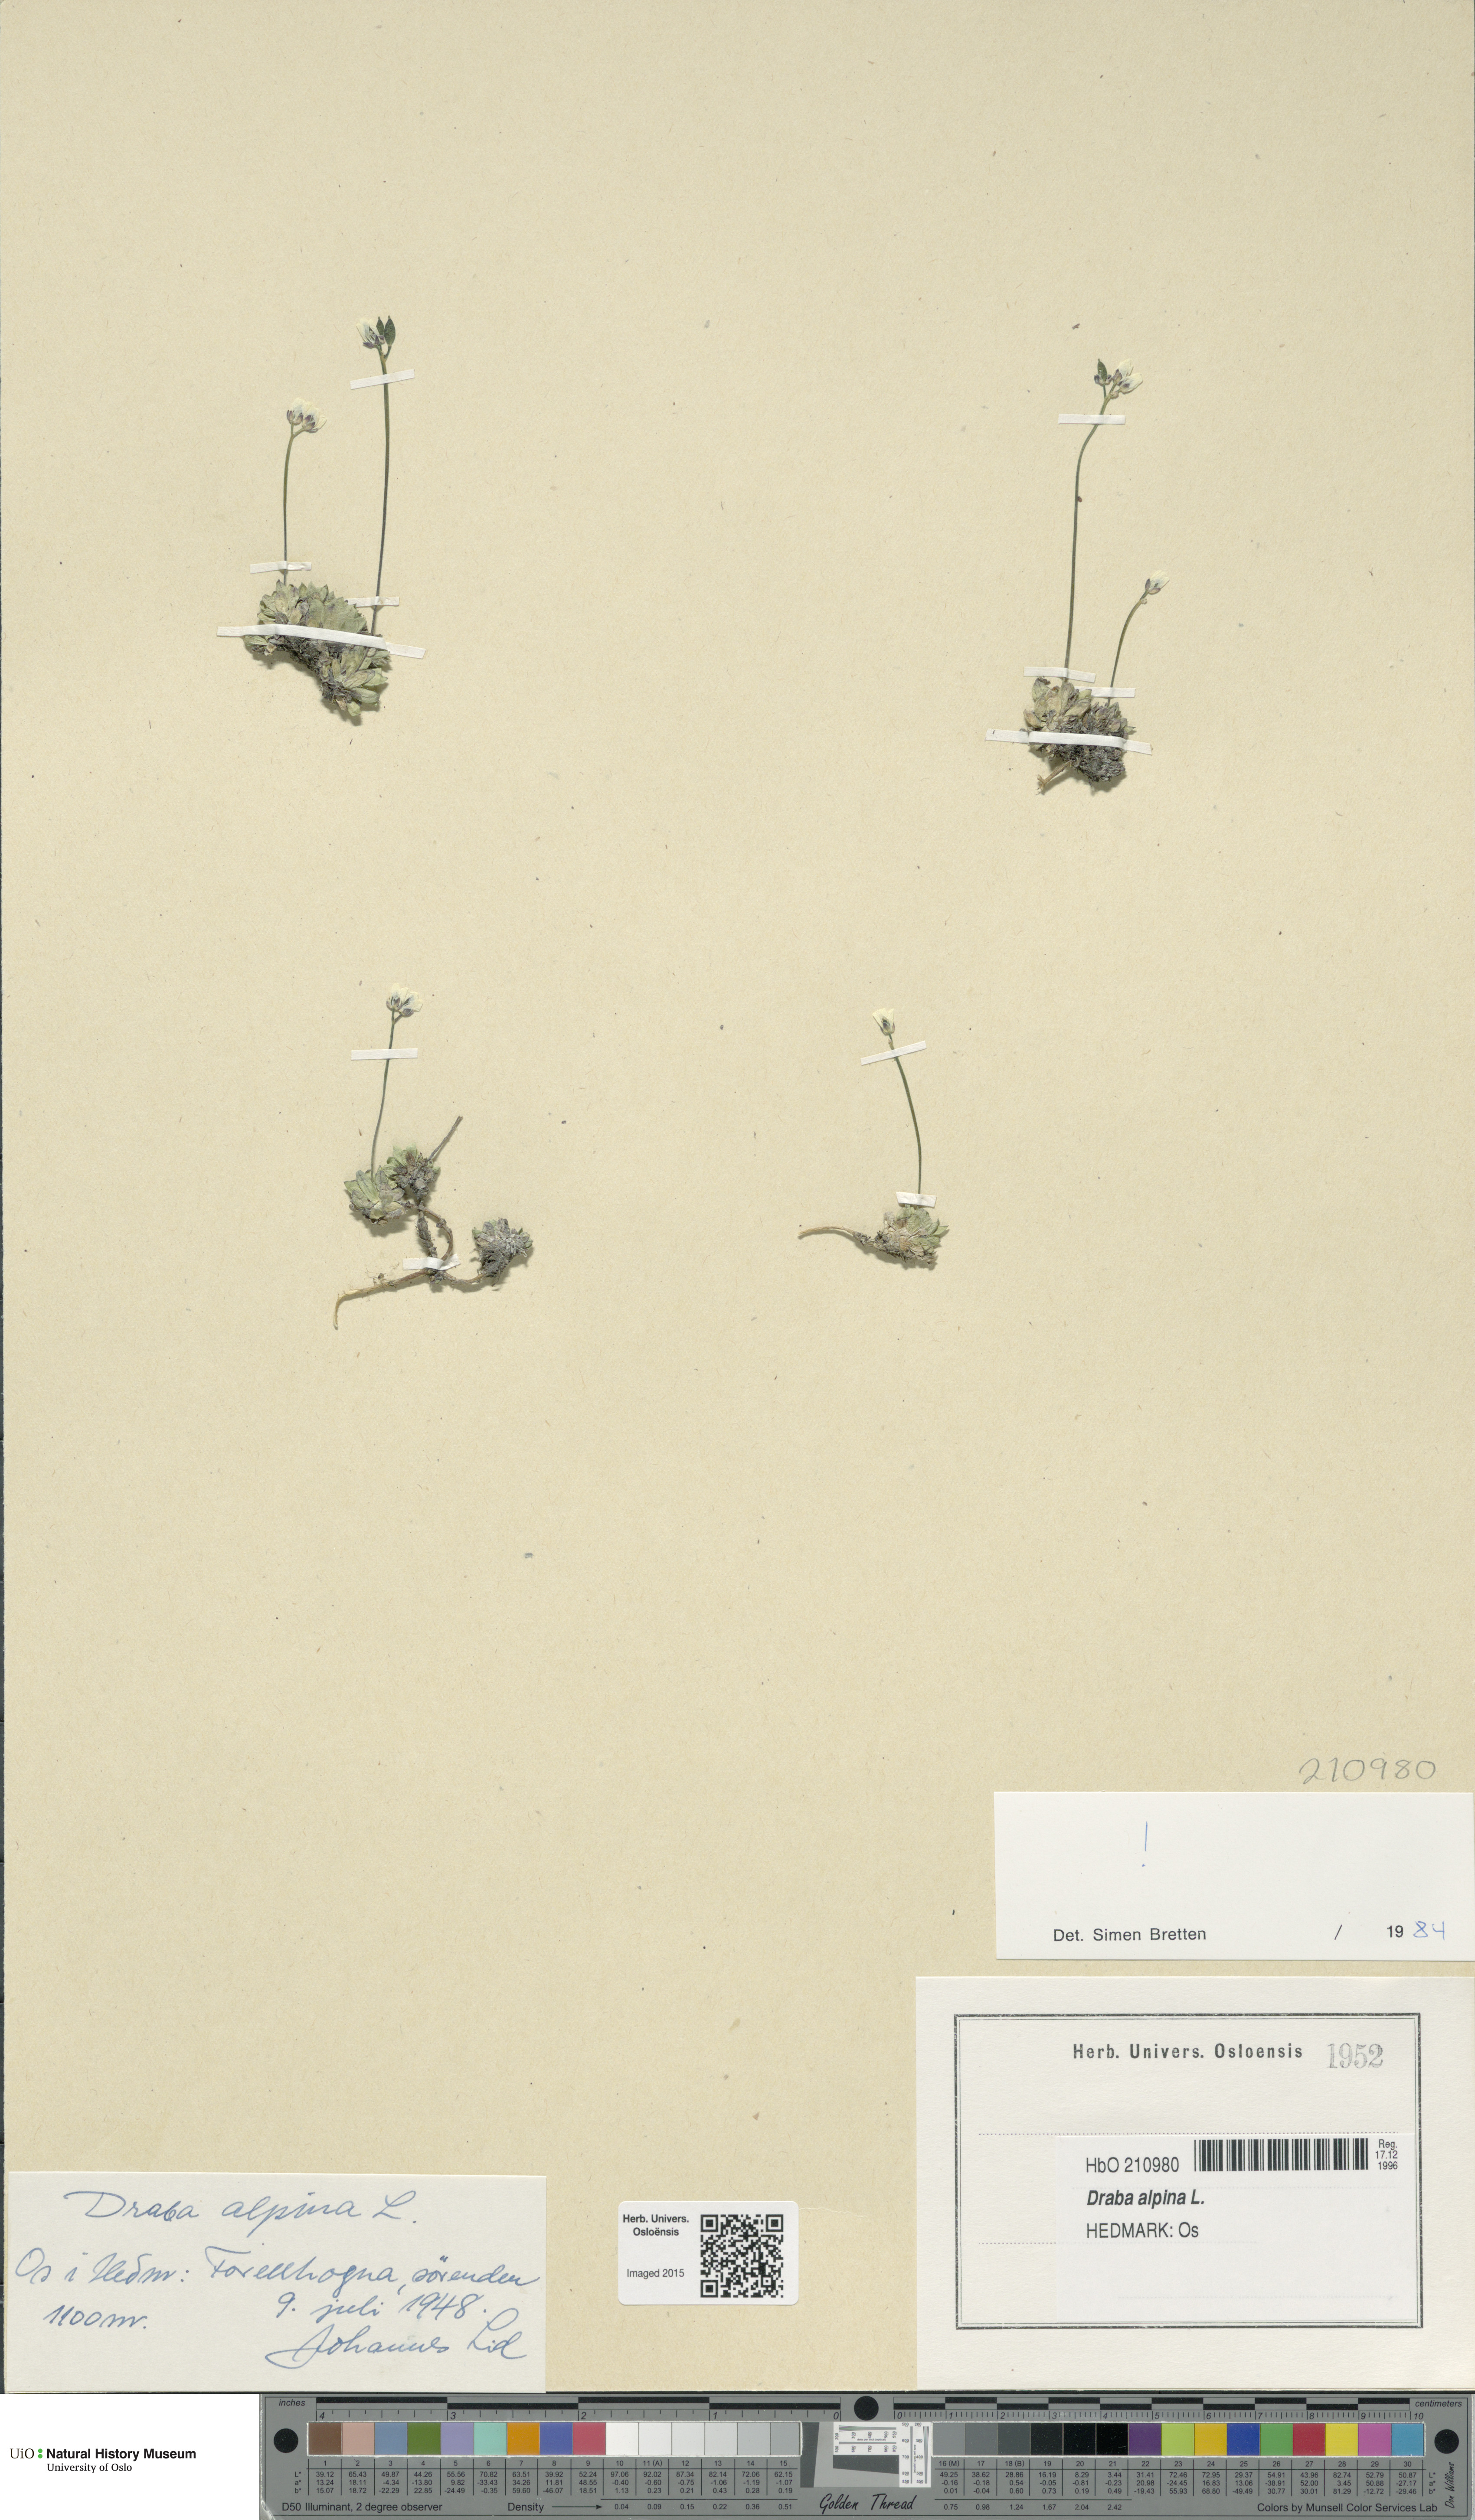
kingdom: Plantae
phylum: Tracheophyta
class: Magnoliopsida
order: Brassicales
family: Brassicaceae
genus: Draba
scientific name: Draba alpina
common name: Alpine draba
